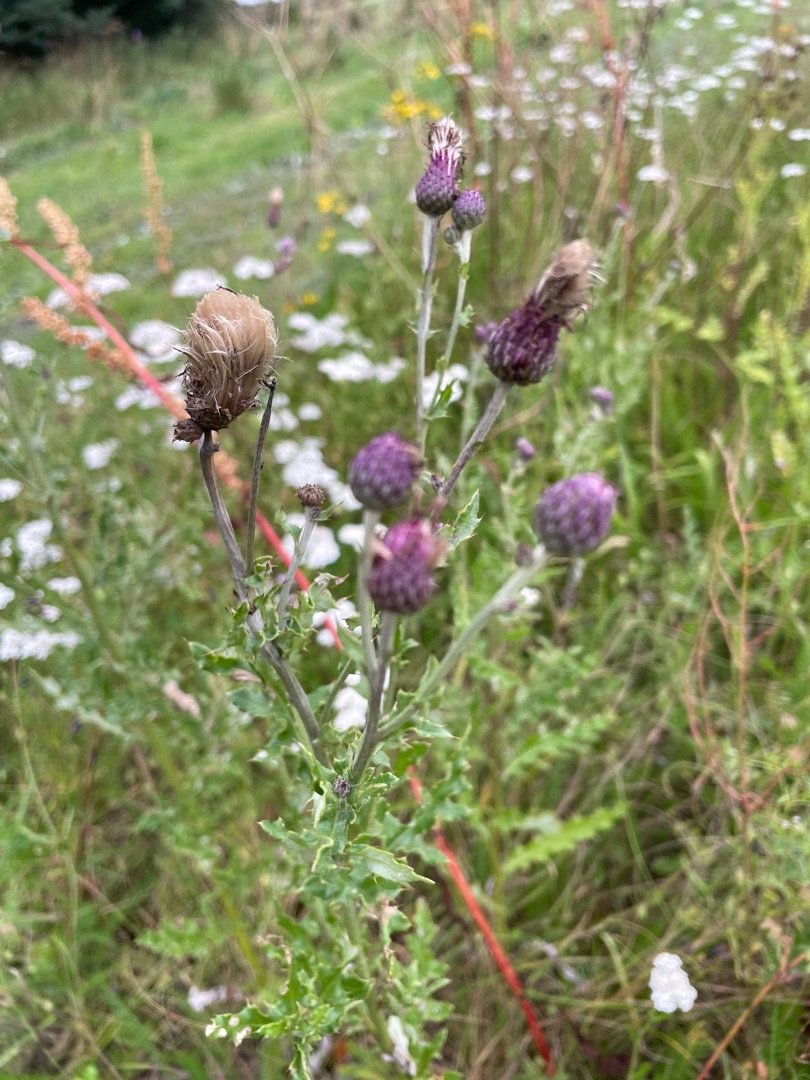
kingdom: Plantae
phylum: Tracheophyta
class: Magnoliopsida
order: Asterales
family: Asteraceae
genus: Cirsium
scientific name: Cirsium arvense
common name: Ager-tidsel
